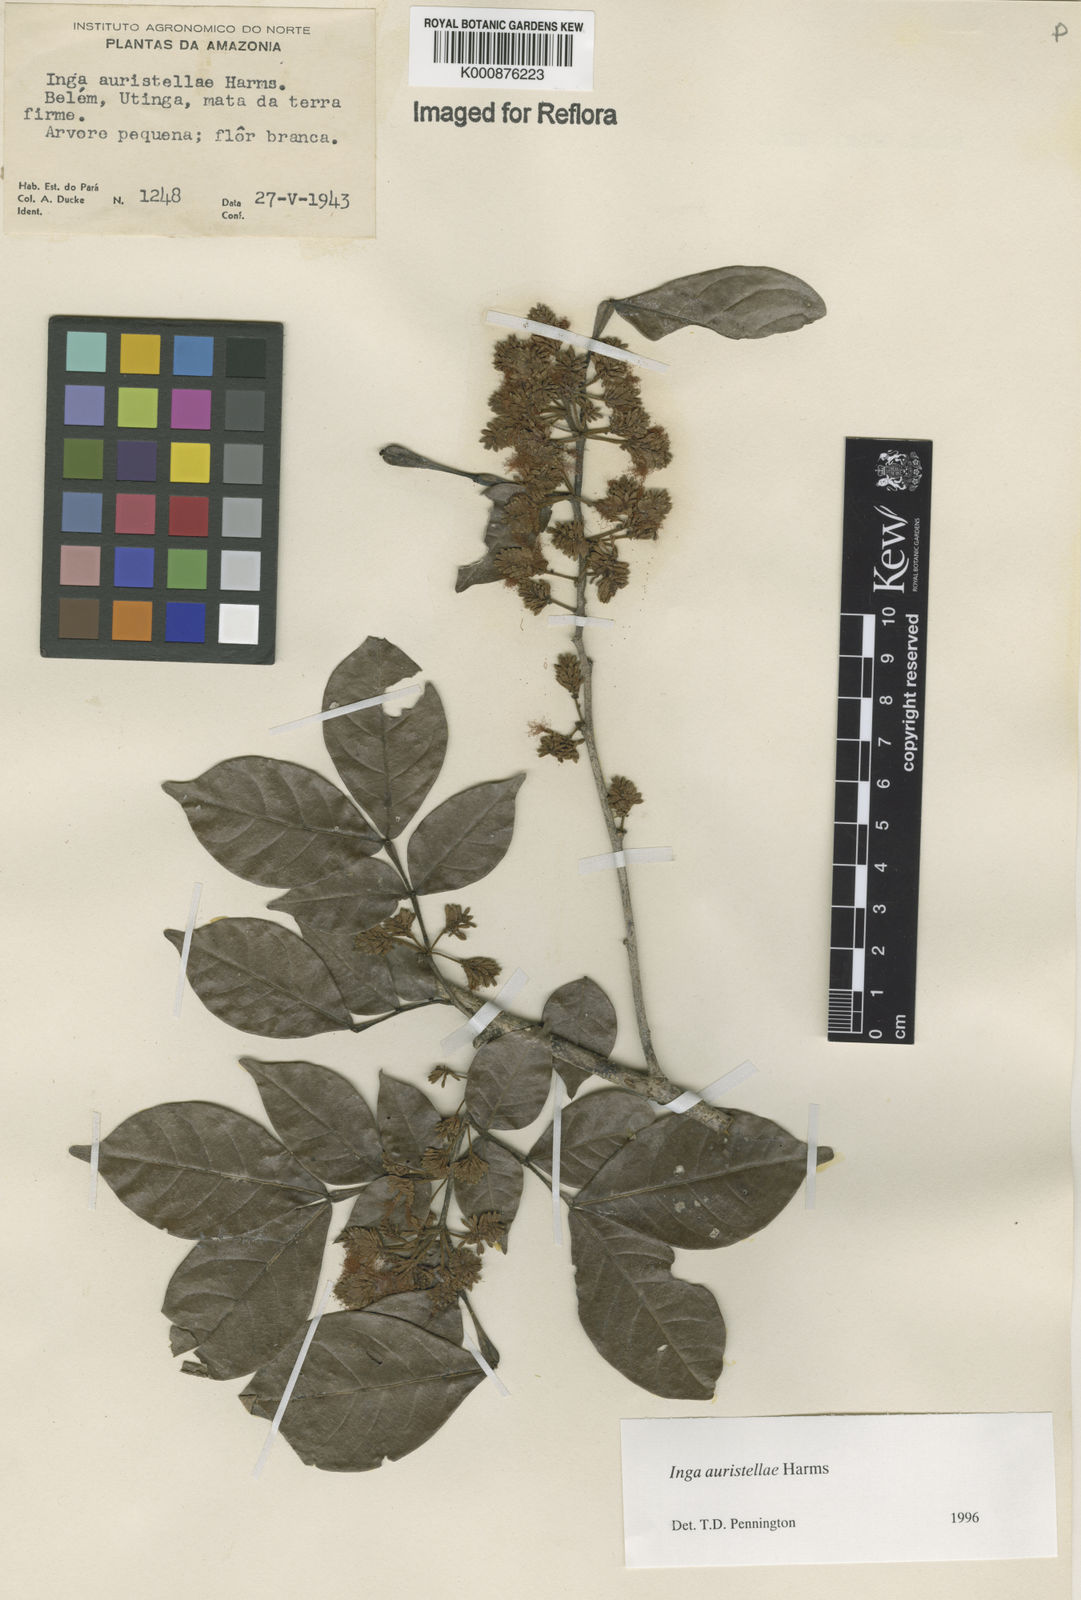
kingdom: Plantae
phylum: Tracheophyta
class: Magnoliopsida
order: Fabales
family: Fabaceae
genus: Inga
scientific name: Inga auristellae
